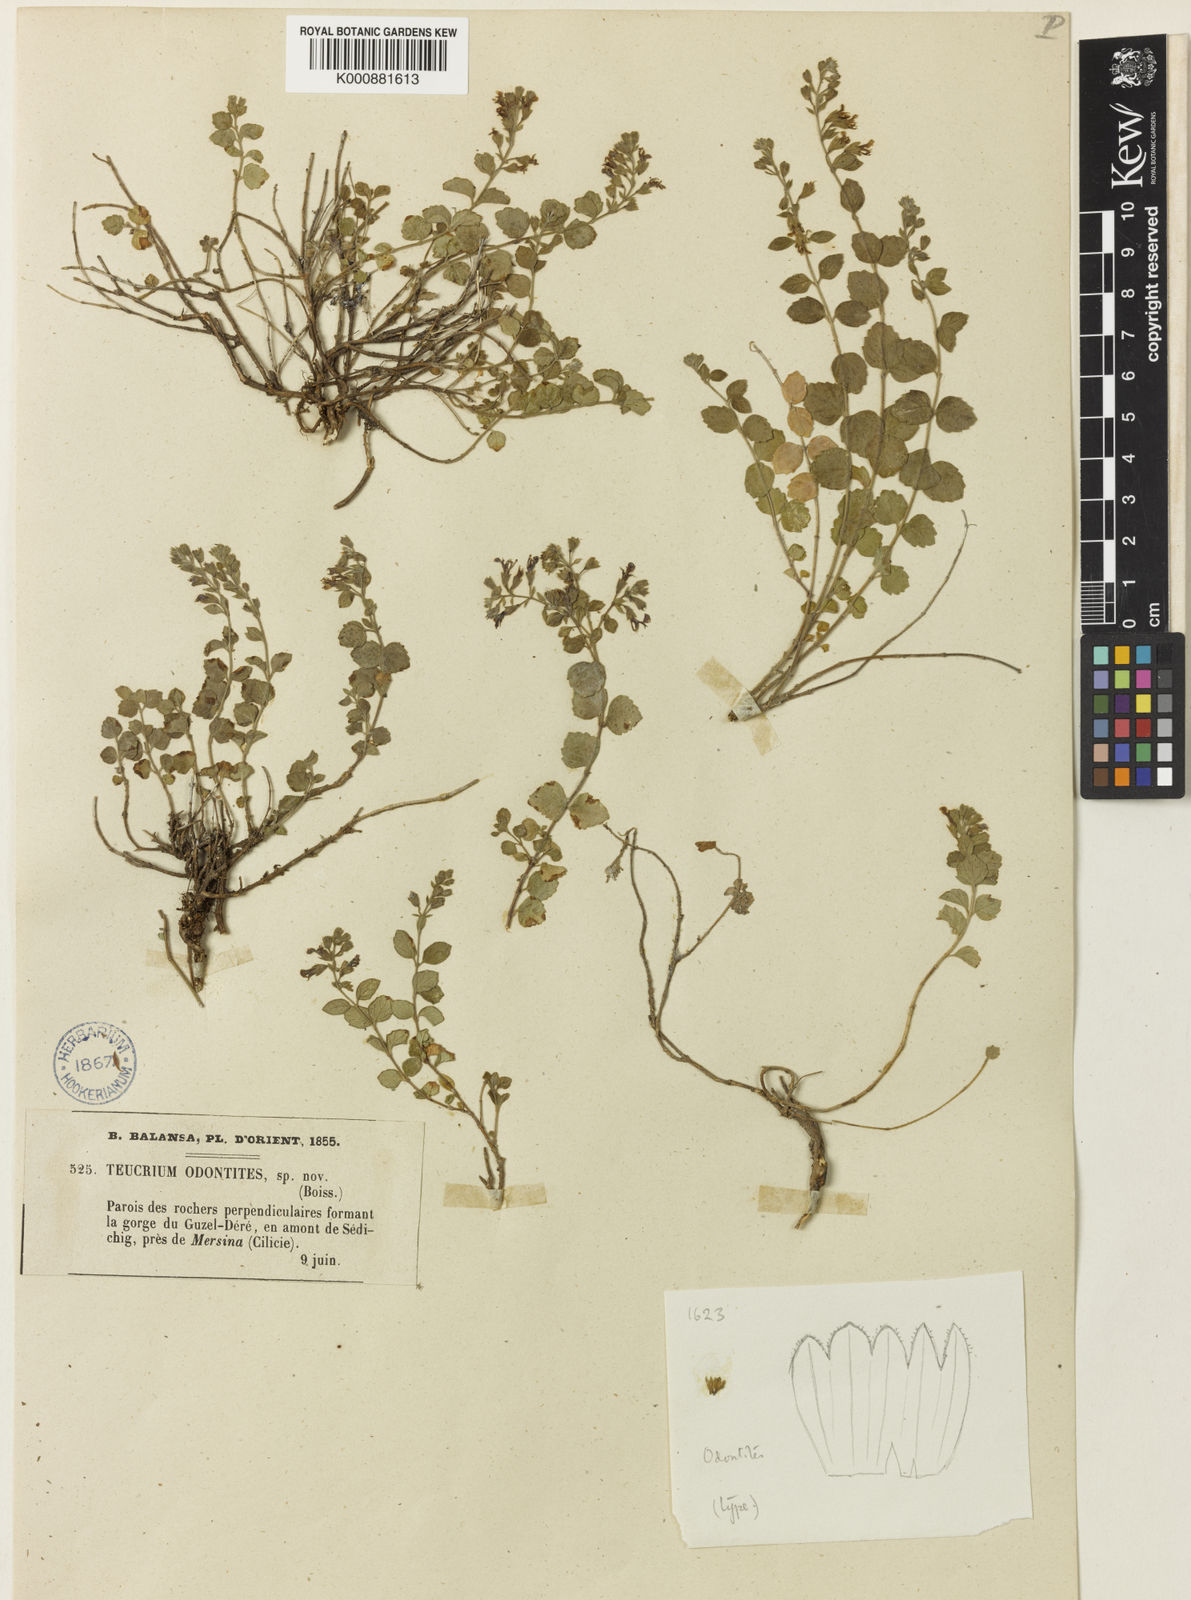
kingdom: Plantae
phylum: Tracheophyta
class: Magnoliopsida
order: Lamiales
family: Lamiaceae
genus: Teucrium
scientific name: Teucrium odontites
